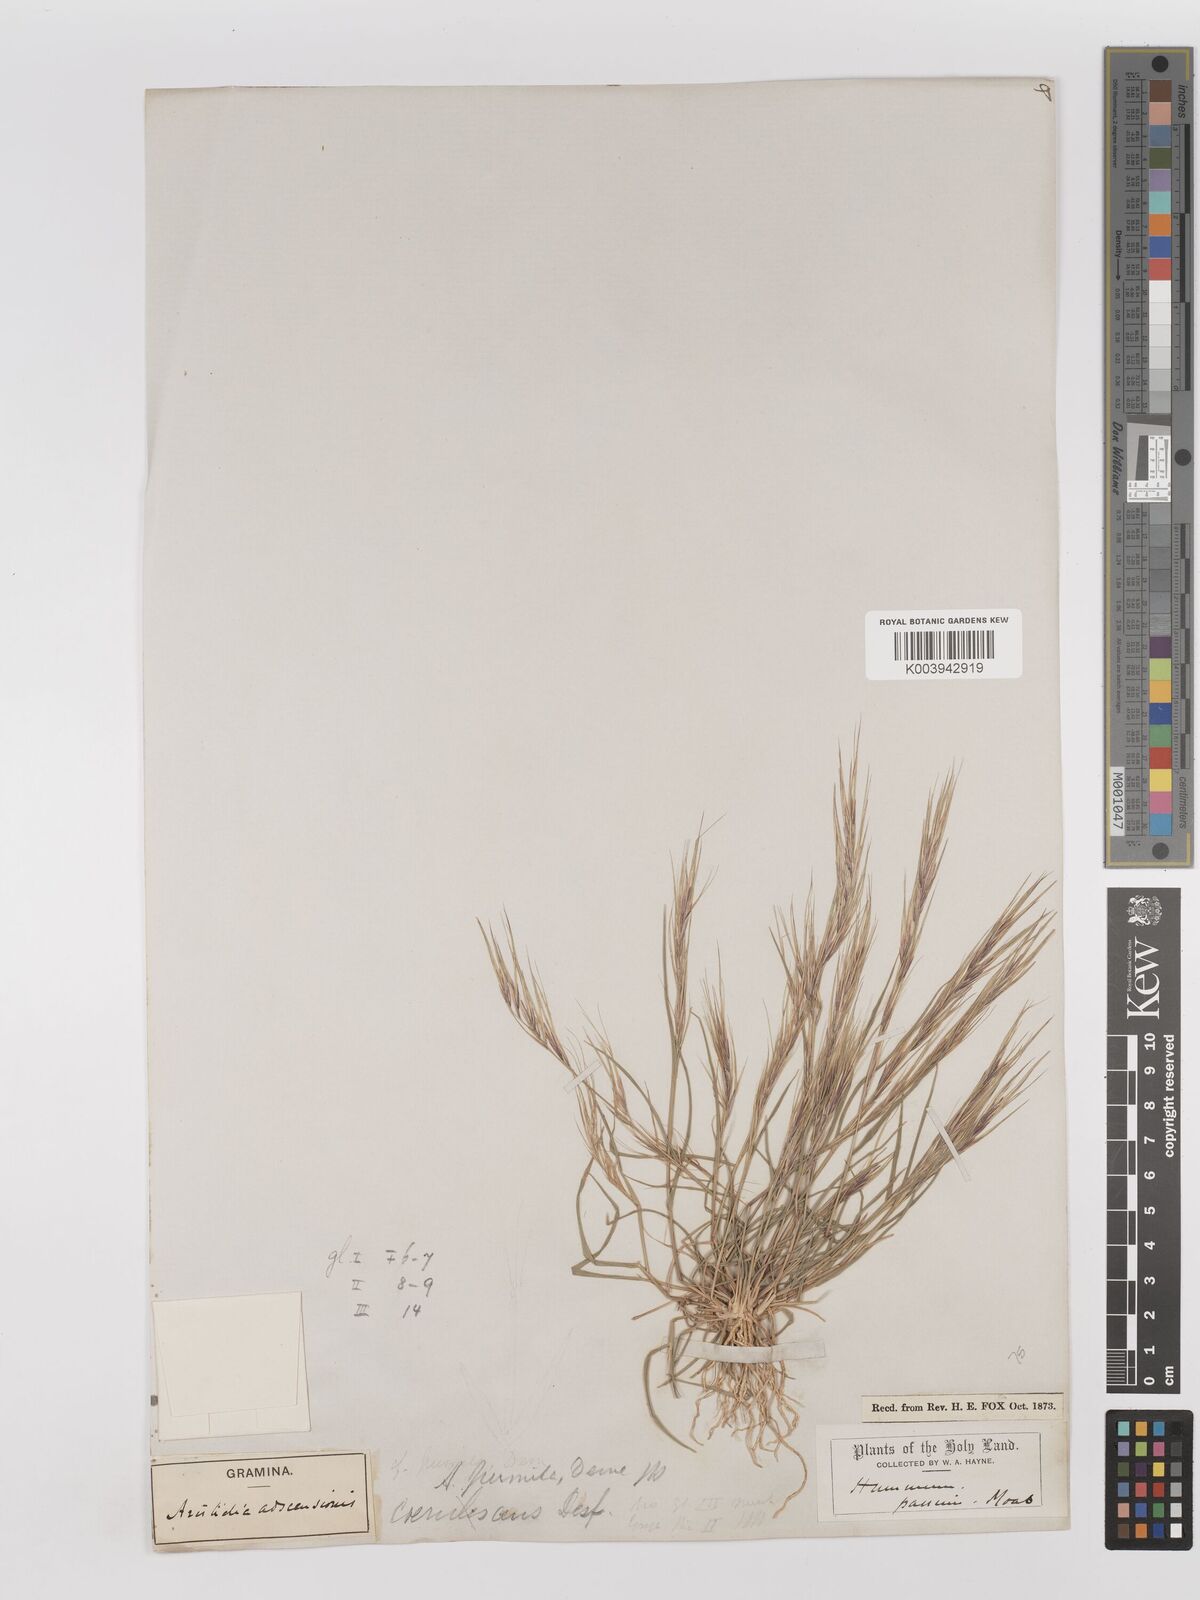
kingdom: Plantae
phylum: Tracheophyta
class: Liliopsida
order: Poales
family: Poaceae
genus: Aristida
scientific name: Aristida adscensionis
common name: Sixweeks threeawn
